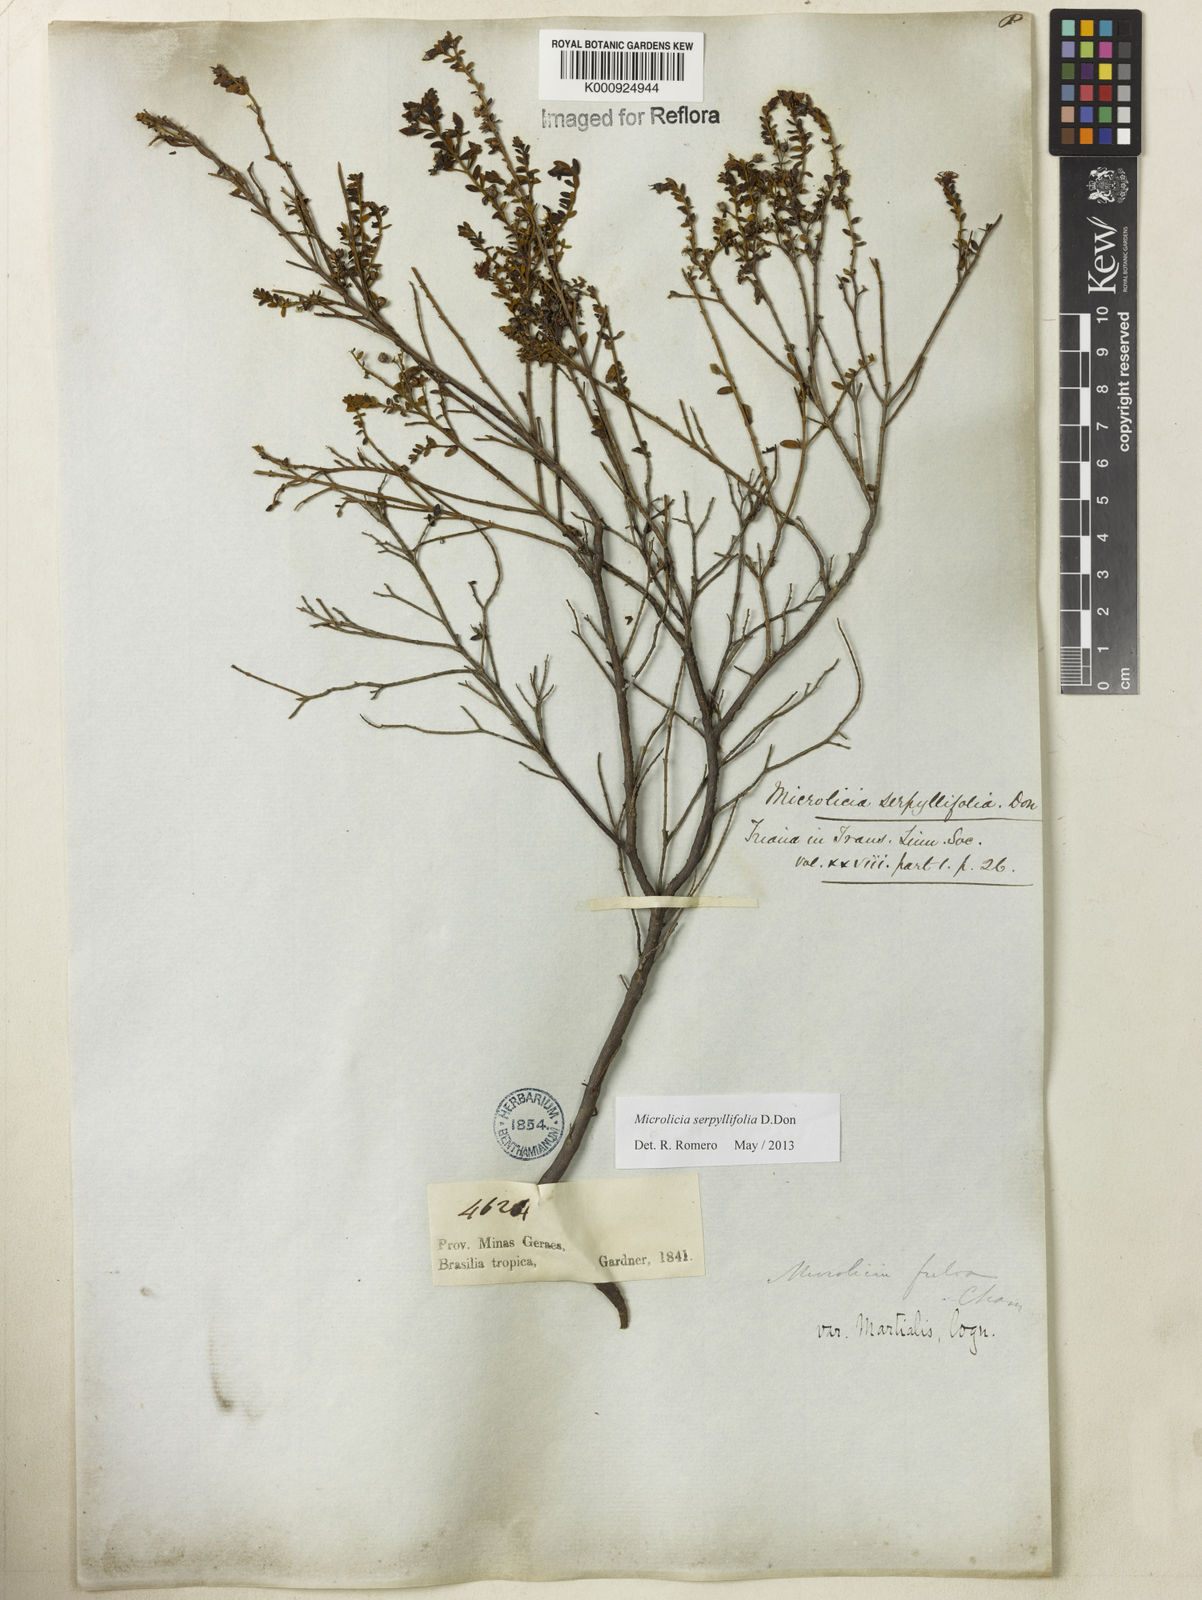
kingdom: Plantae
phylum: Tracheophyta
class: Magnoliopsida
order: Myrtales
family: Melastomataceae
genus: Microlicia
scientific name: Microlicia fulva
